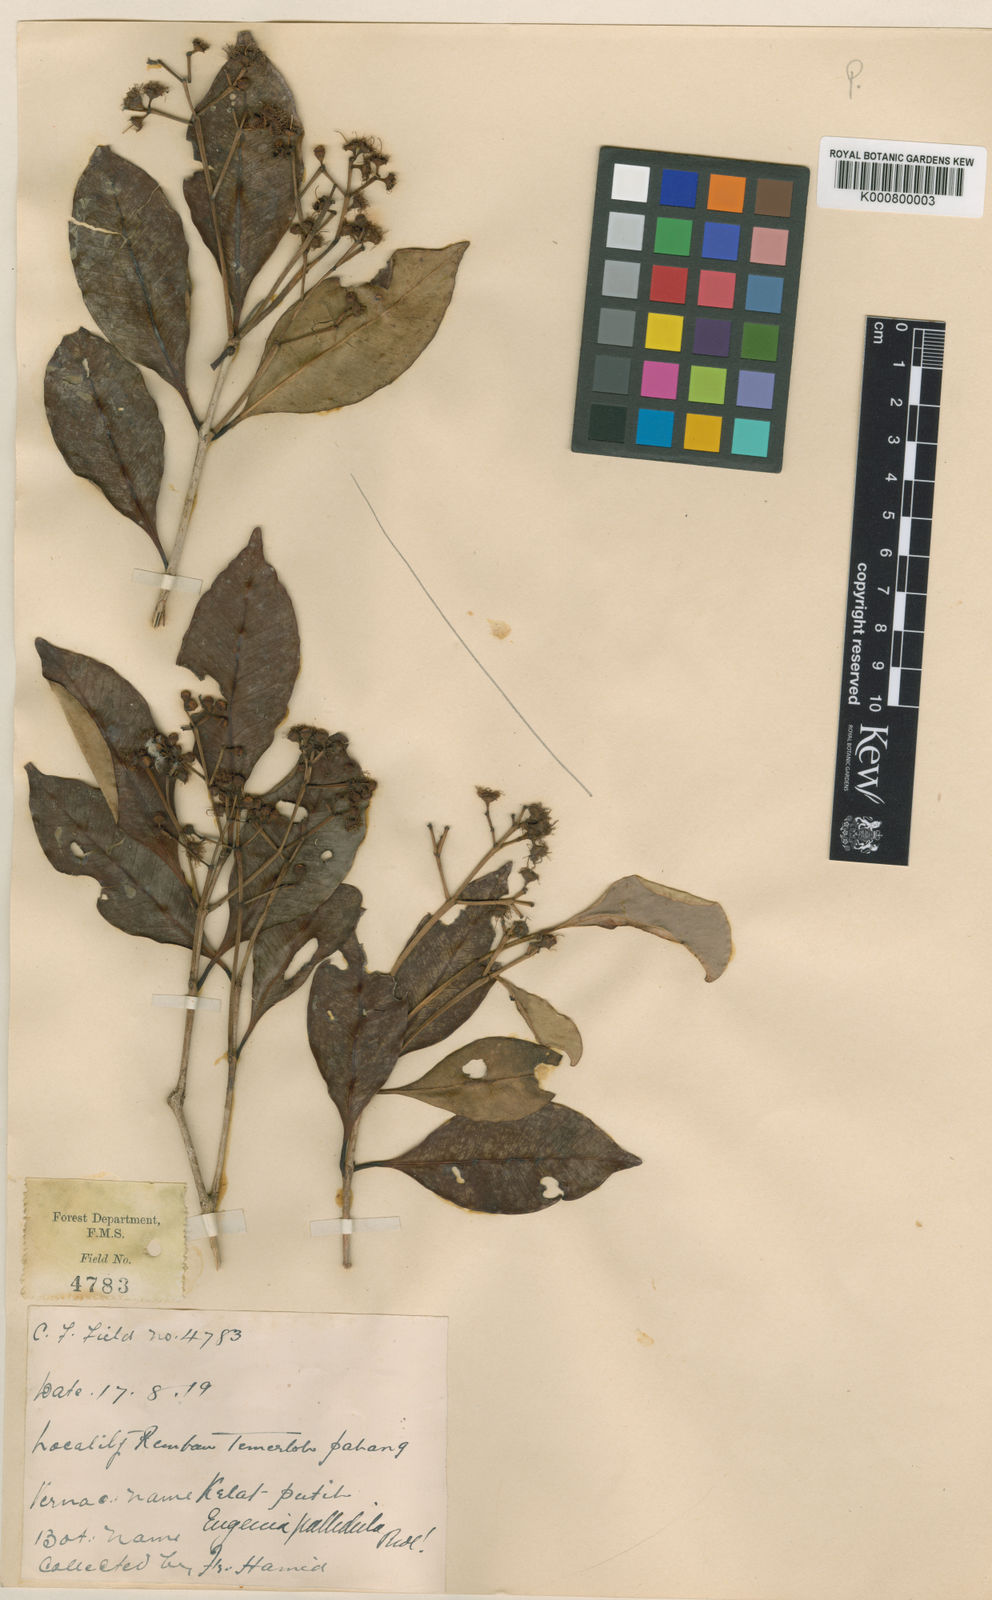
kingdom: Plantae
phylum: Tracheophyta
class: Magnoliopsida
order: Myrtales
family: Myrtaceae
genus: Syzygium
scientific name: Syzygium pallidulum
